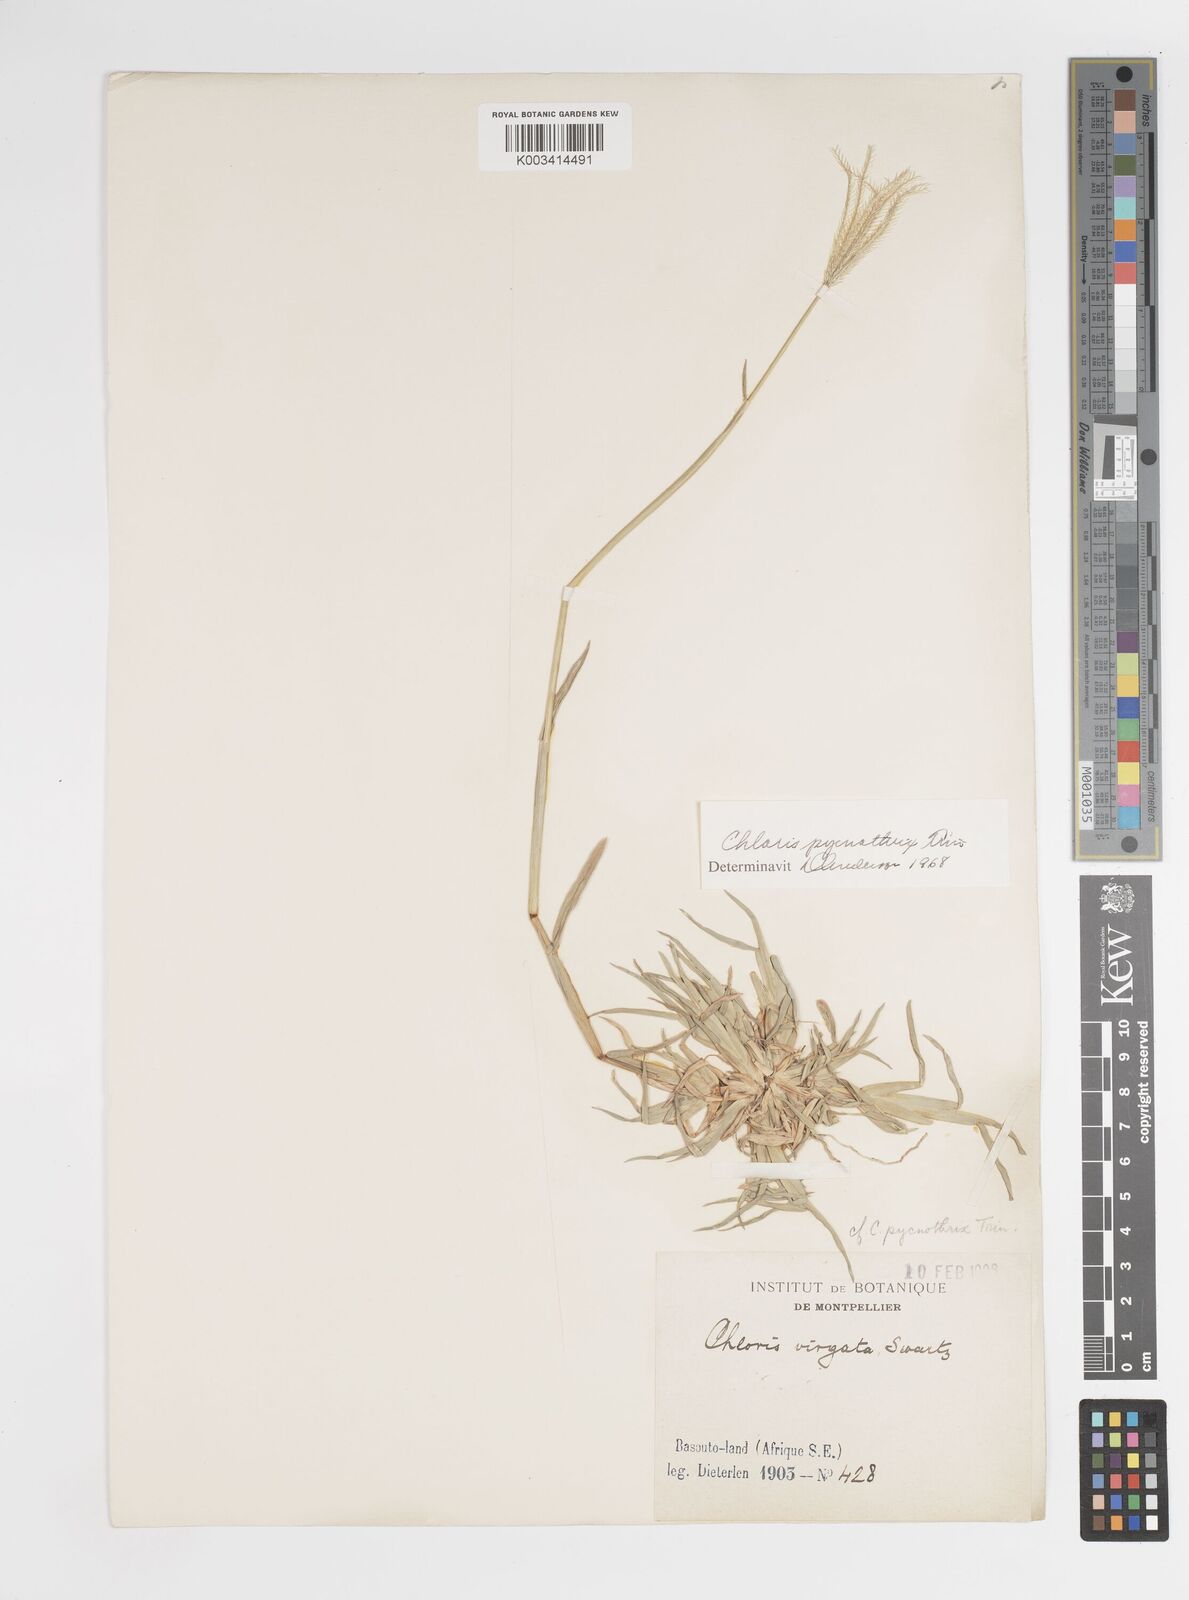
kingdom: Plantae
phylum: Tracheophyta
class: Liliopsida
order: Poales
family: Poaceae
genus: Chloris
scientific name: Chloris pycnothrix
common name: Spiderweb chloris
